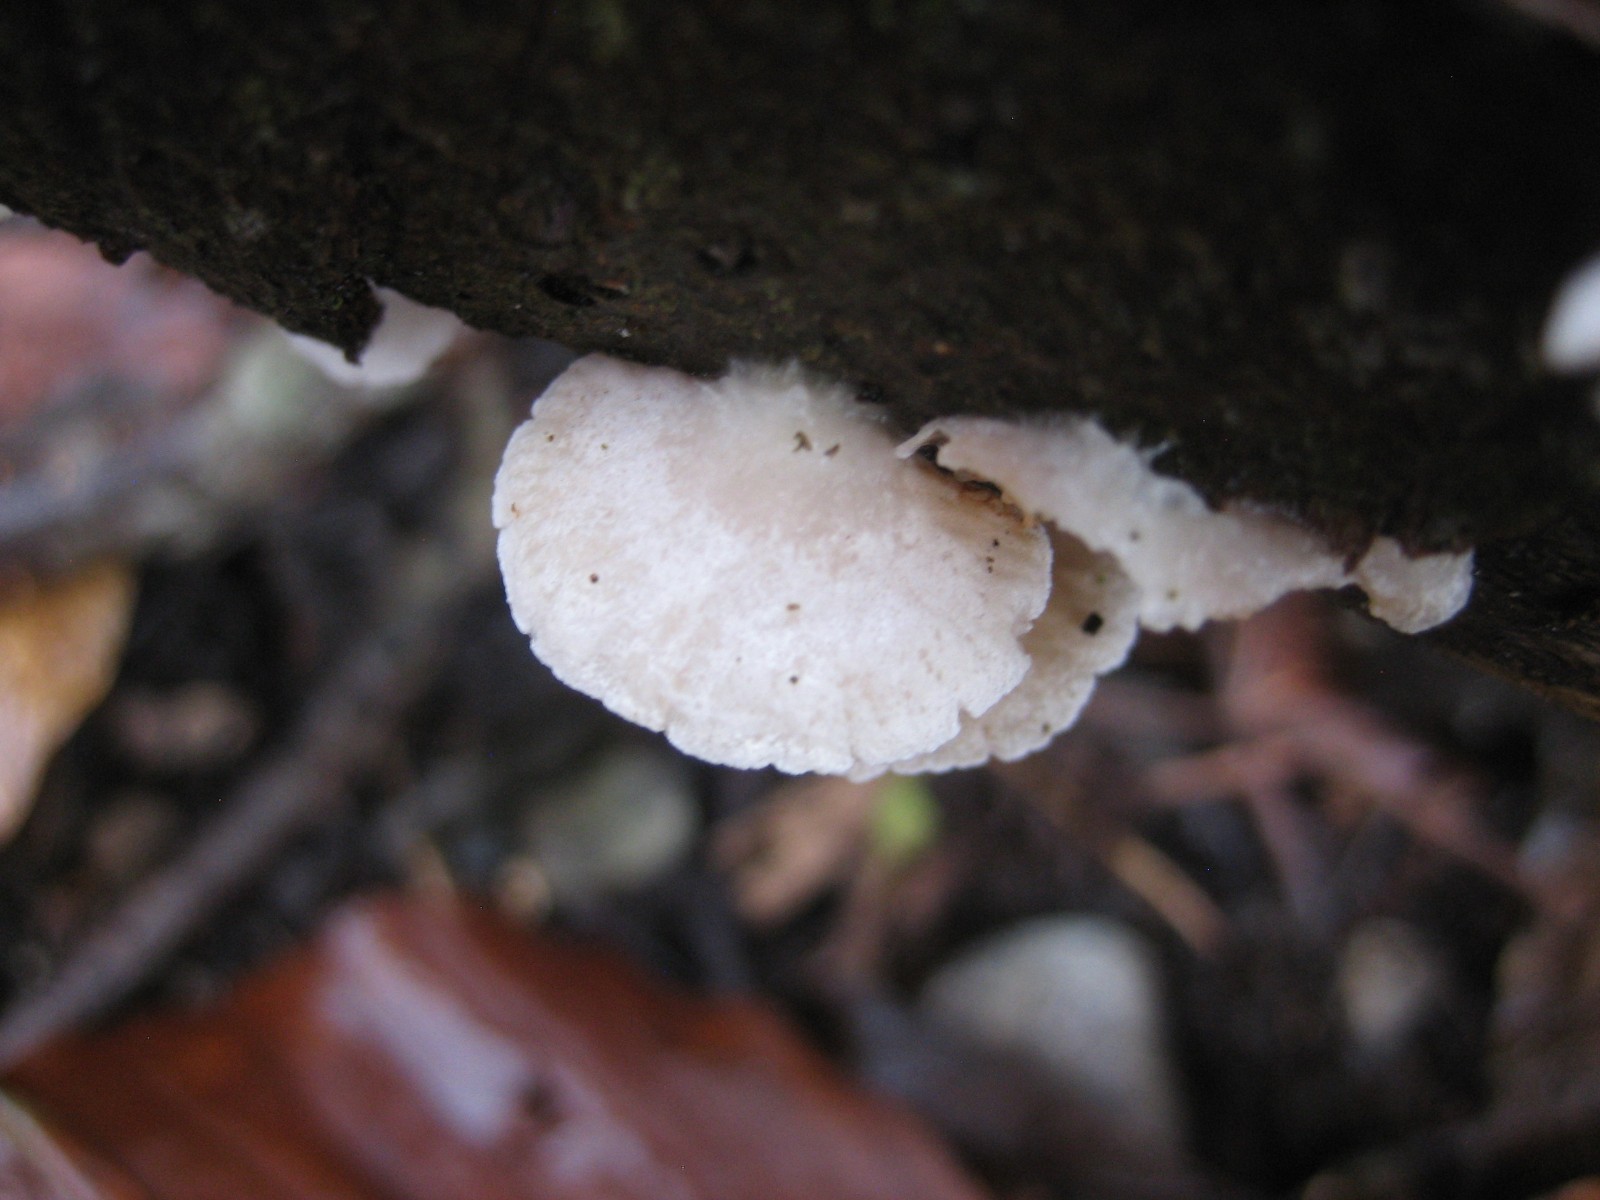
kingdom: Fungi
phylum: Basidiomycota
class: Agaricomycetes
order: Agaricales
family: Crepidotaceae
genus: Crepidotus
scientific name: Crepidotus
